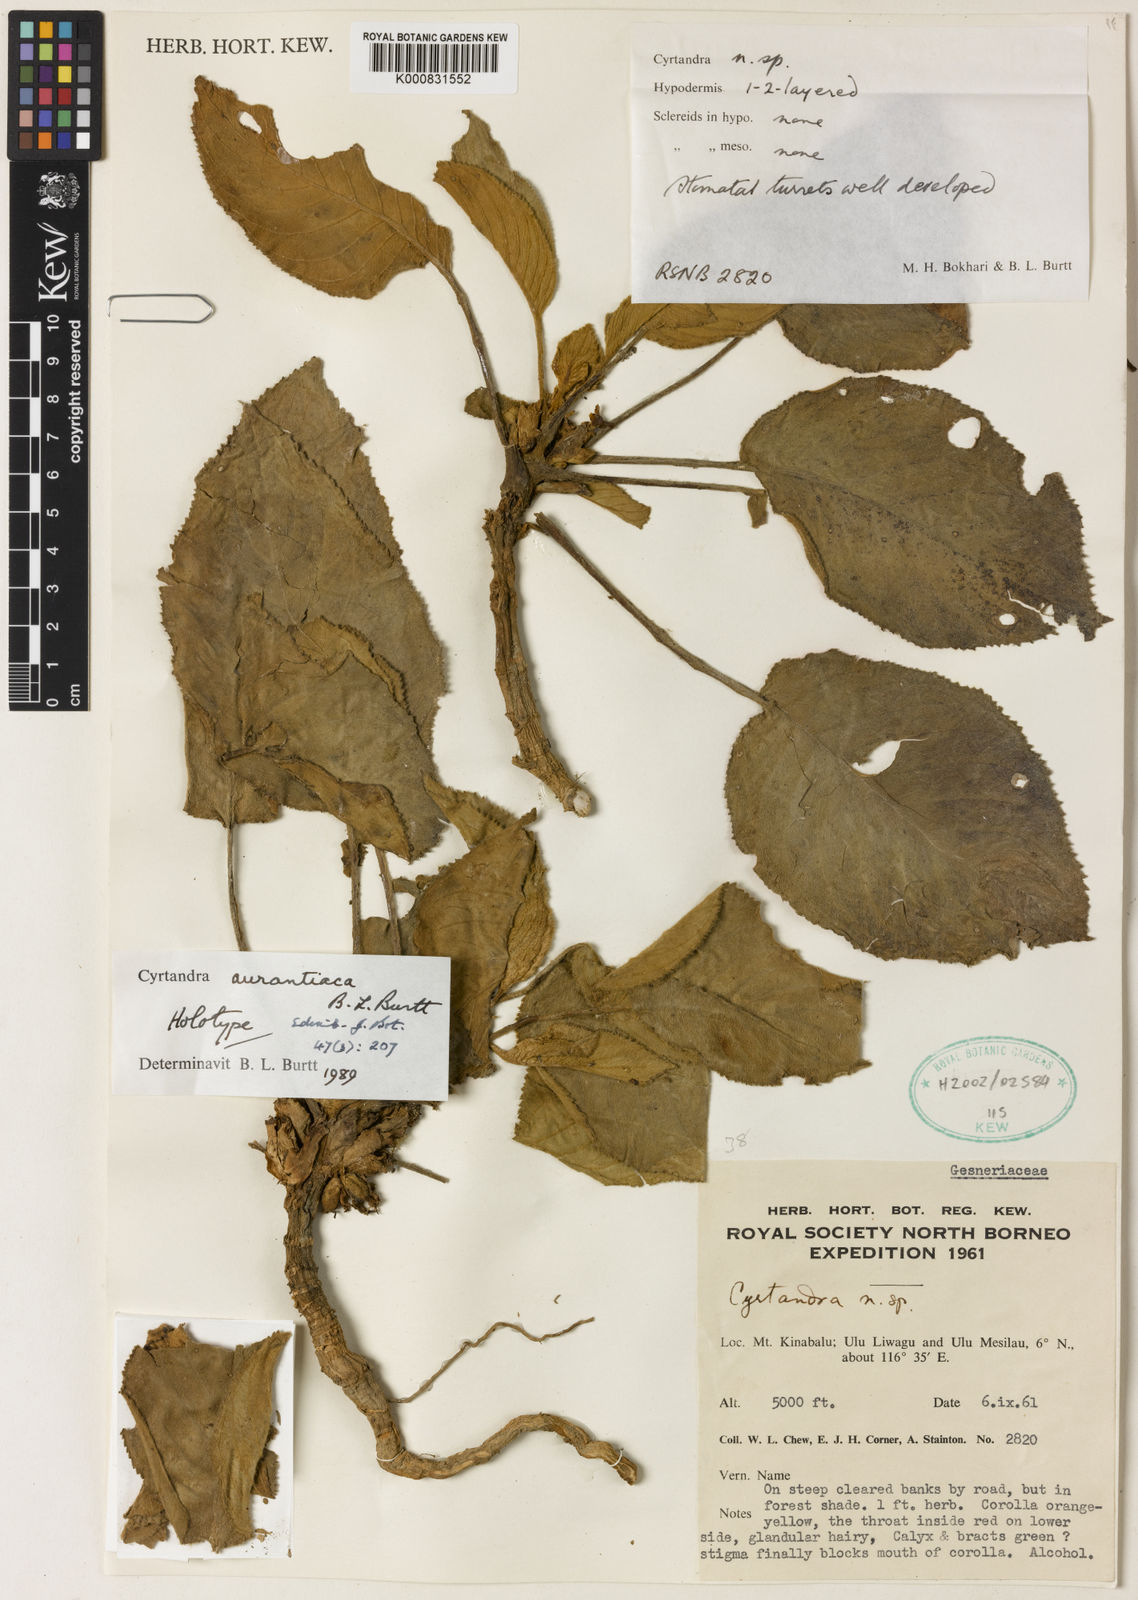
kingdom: Plantae
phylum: Tracheophyta
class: Magnoliopsida
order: Lamiales
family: Gesneriaceae
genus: Cyrtandra
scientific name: Cyrtandra aurantiaca
